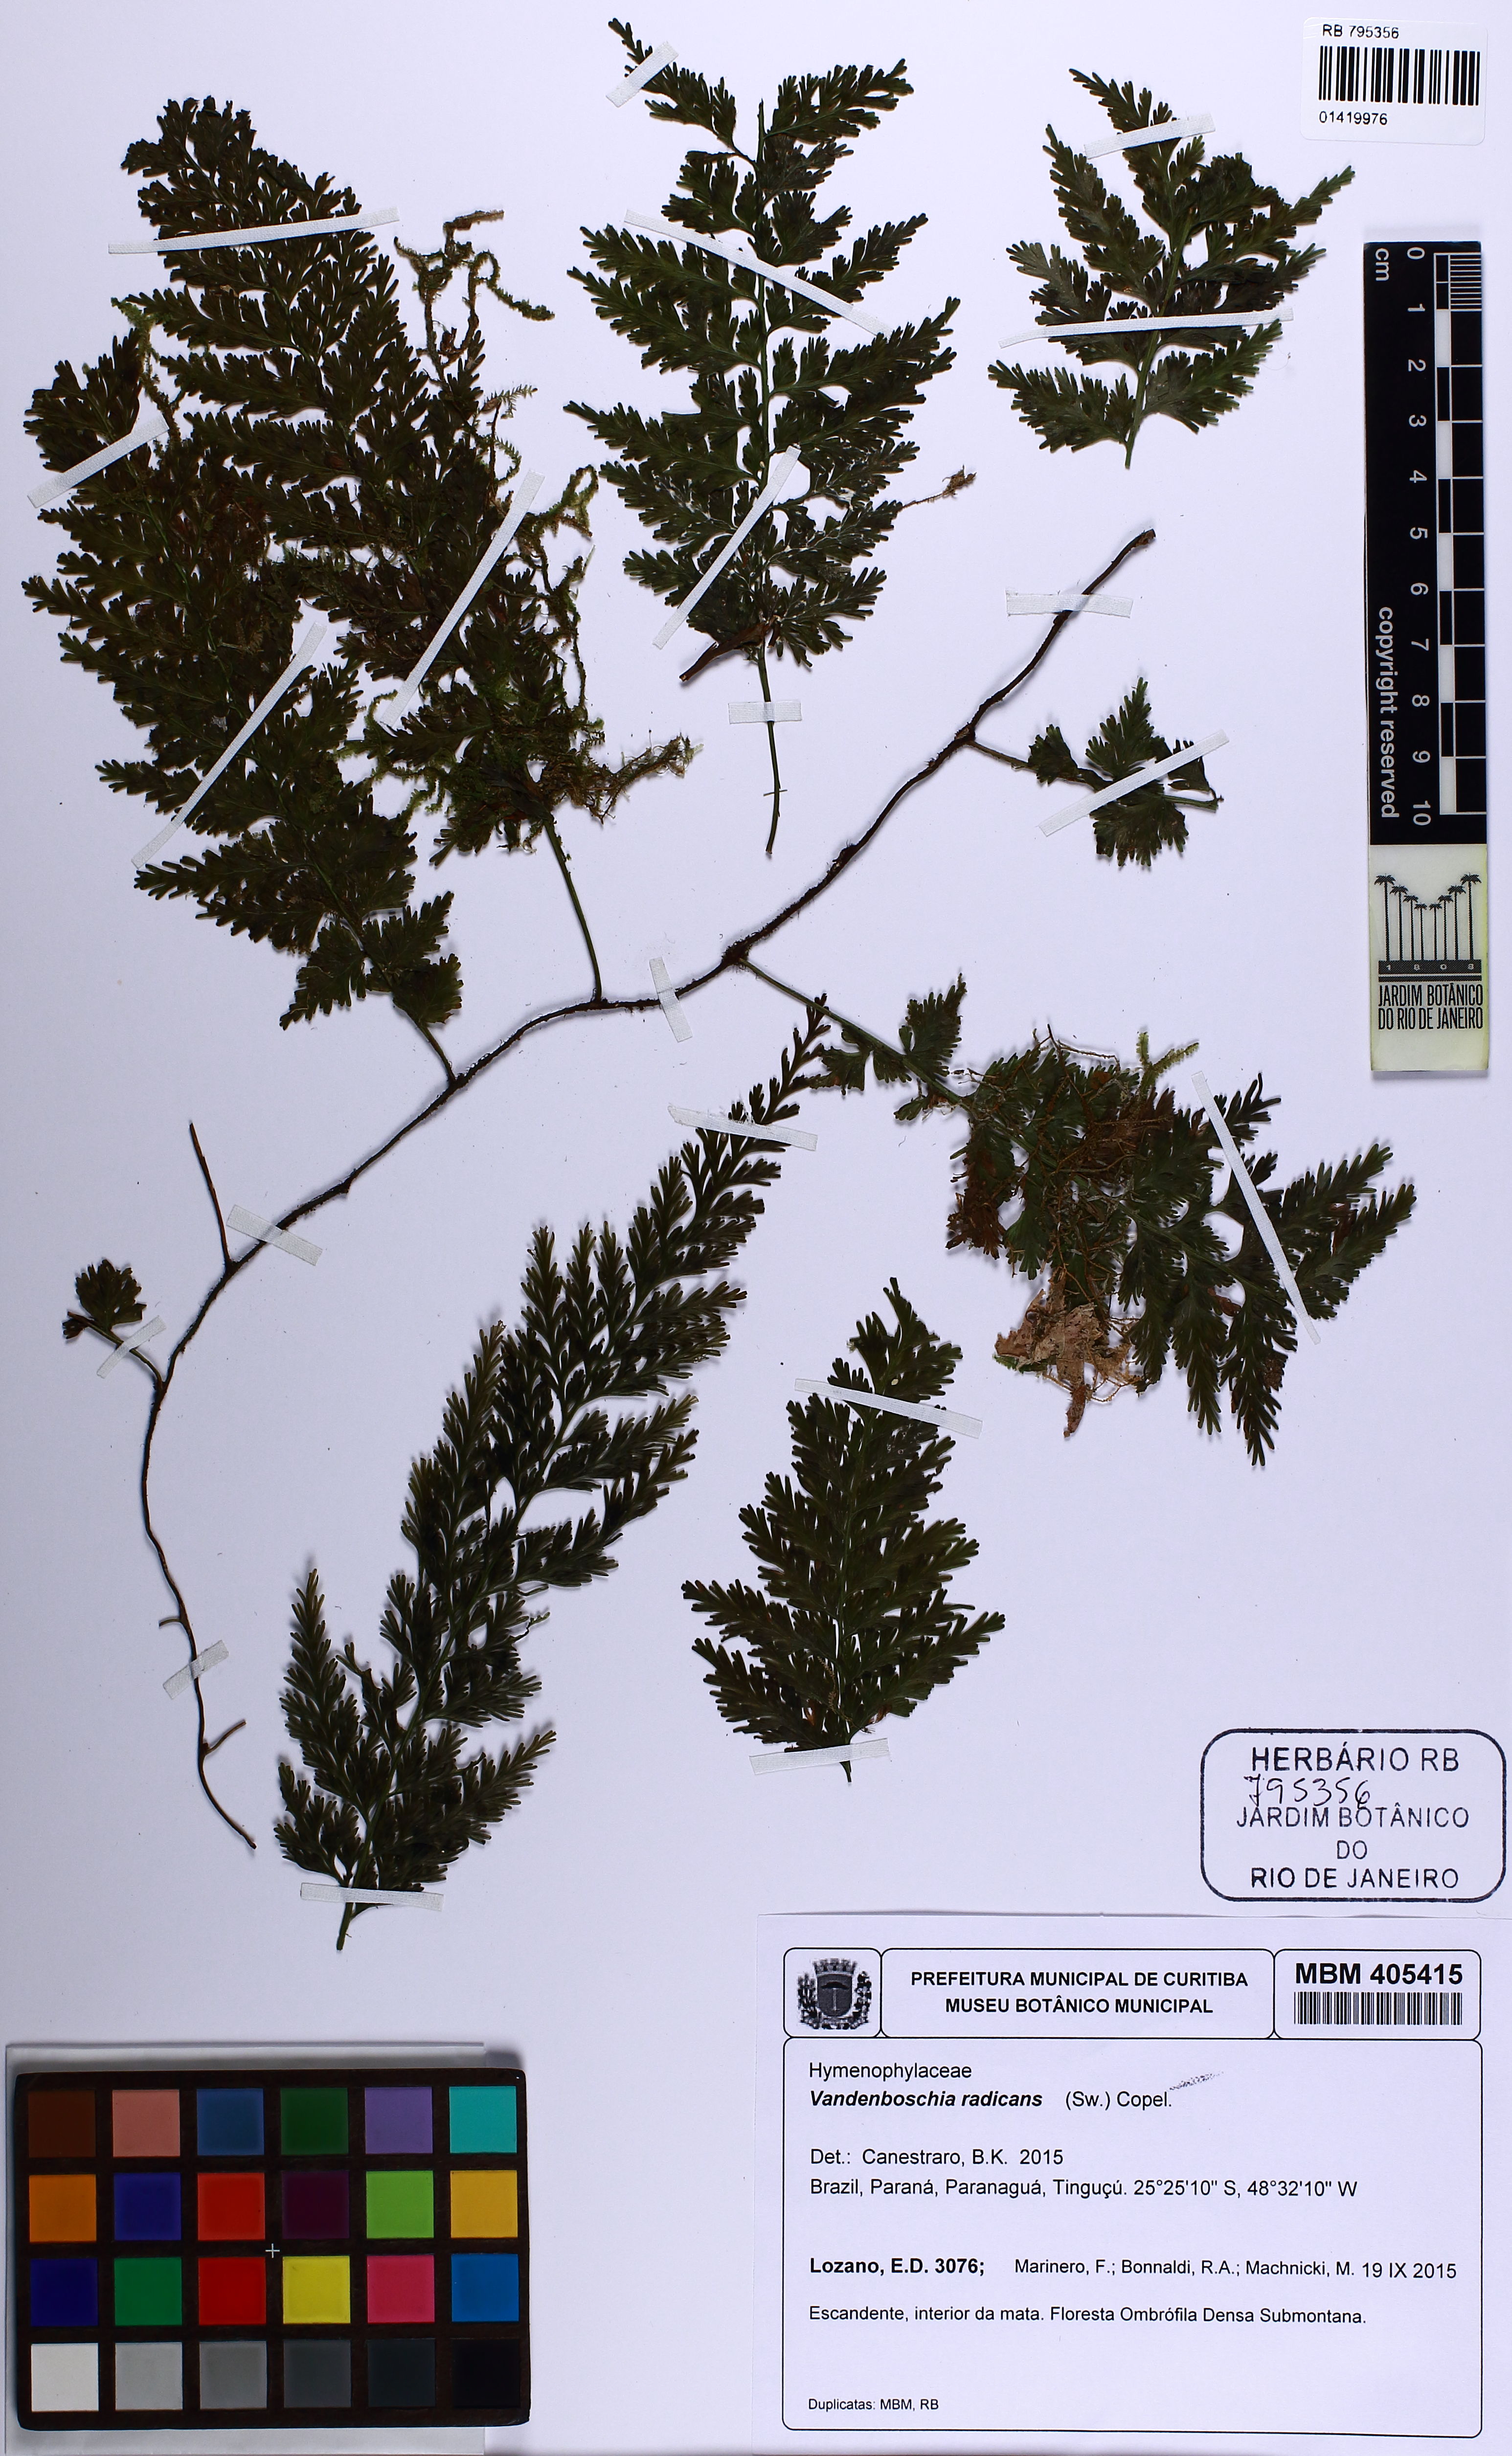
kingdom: Plantae
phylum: Tracheophyta
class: Polypodiopsida
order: Hymenophyllales
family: Hymenophyllaceae
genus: Vandenboschia
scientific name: Vandenboschia radicans
